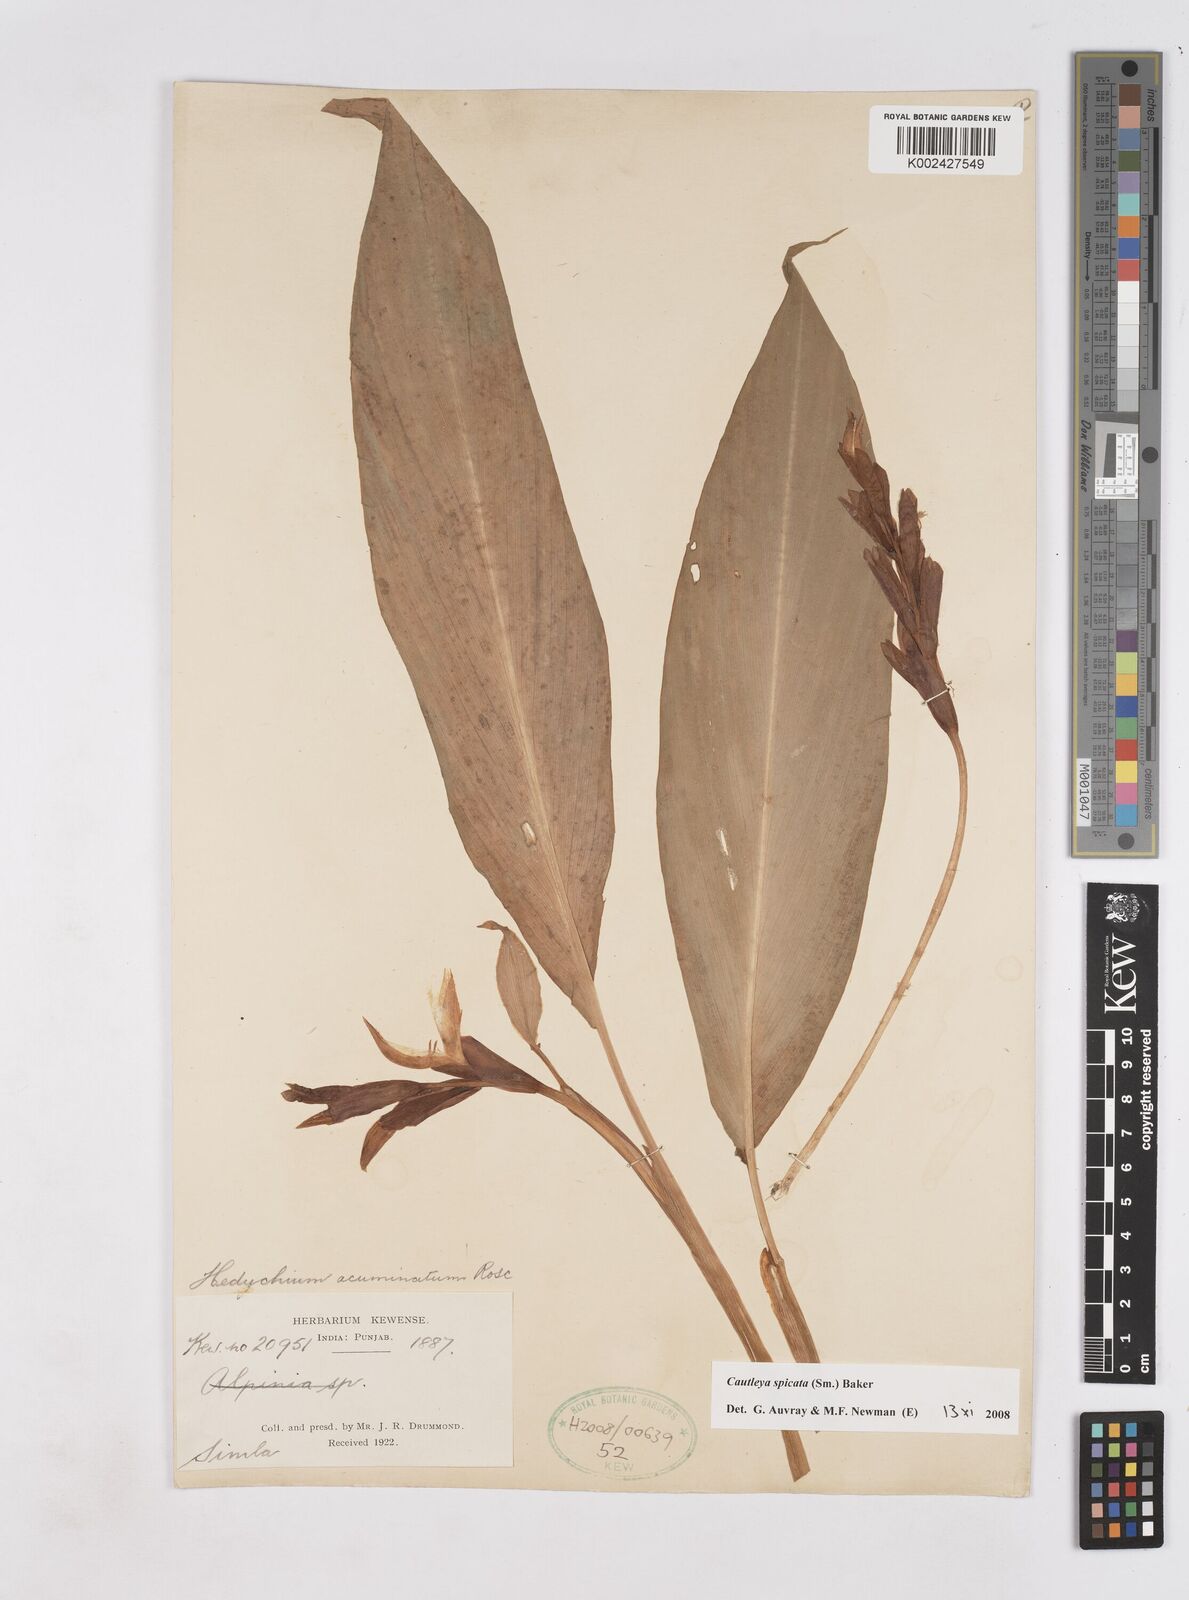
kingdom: Plantae
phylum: Tracheophyta
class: Liliopsida
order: Zingiberales
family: Zingiberaceae
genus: Cautleya
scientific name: Cautleya spicata
